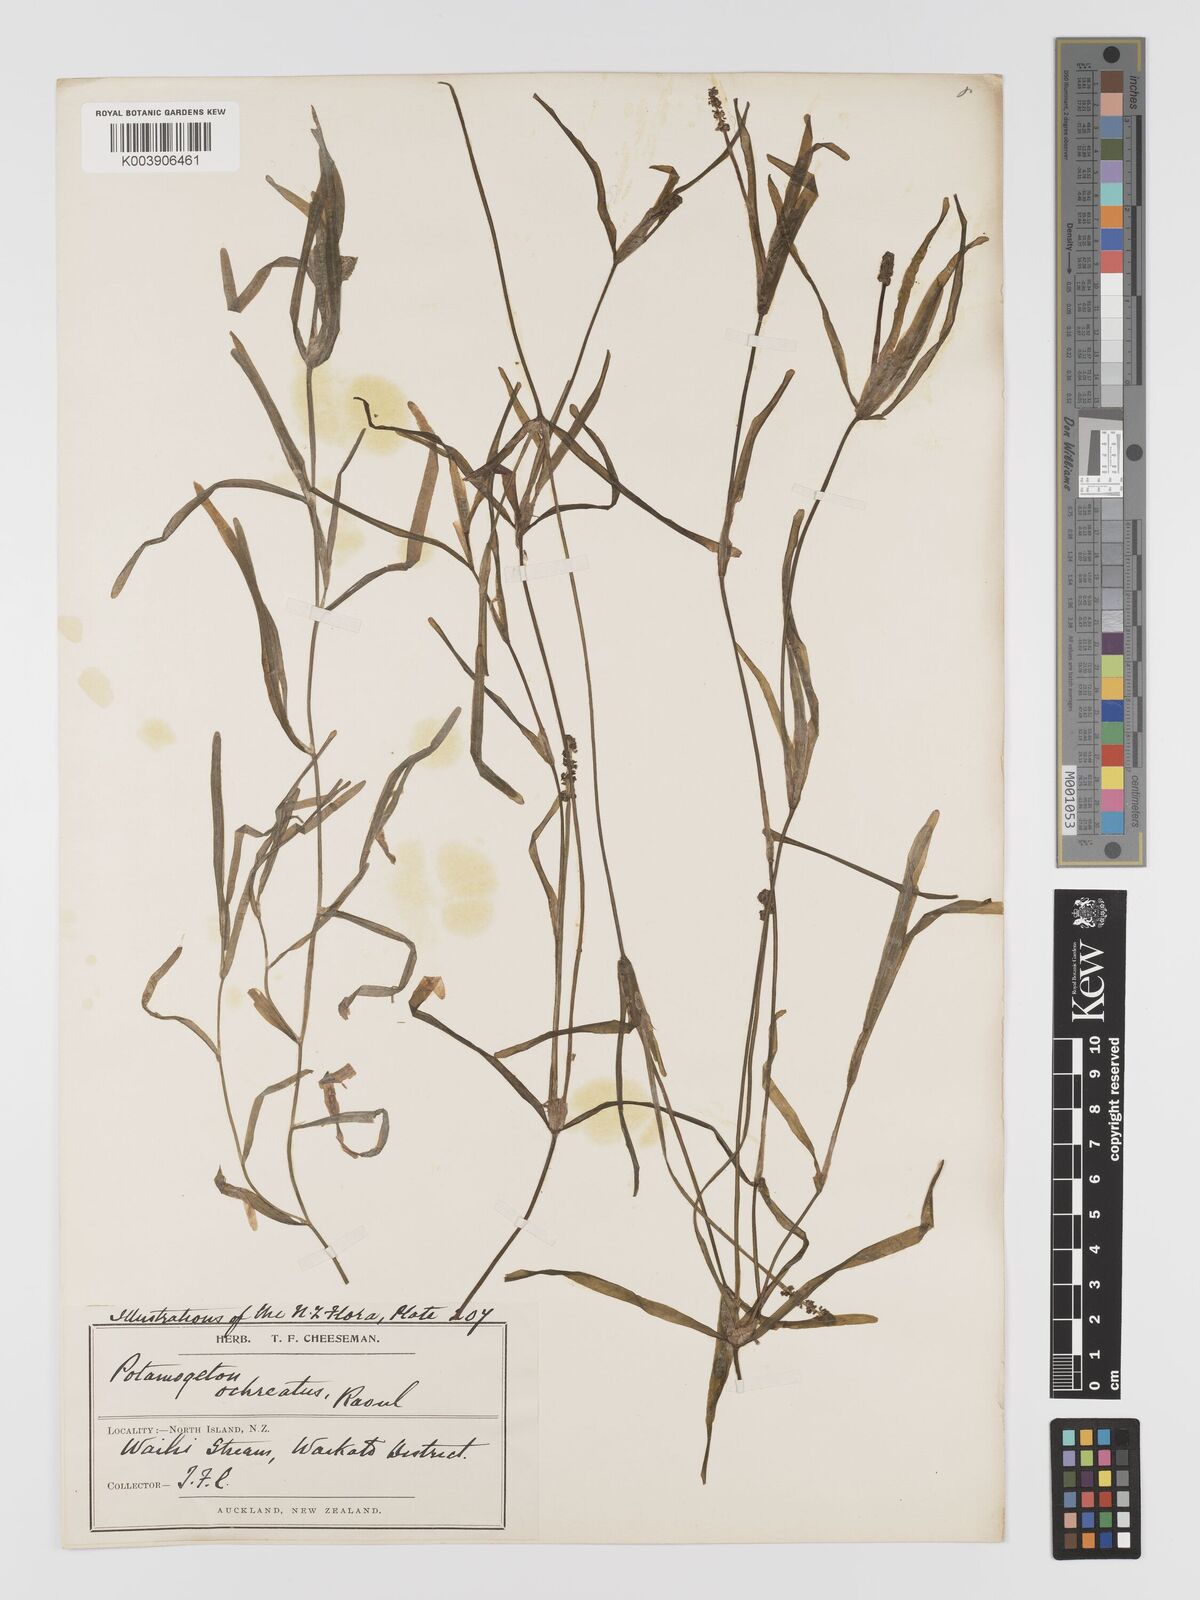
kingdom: Plantae
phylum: Tracheophyta
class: Liliopsida
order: Alismatales
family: Potamogetonaceae
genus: Potamogeton
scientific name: Potamogeton ochreatus
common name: Blunt pondweed
